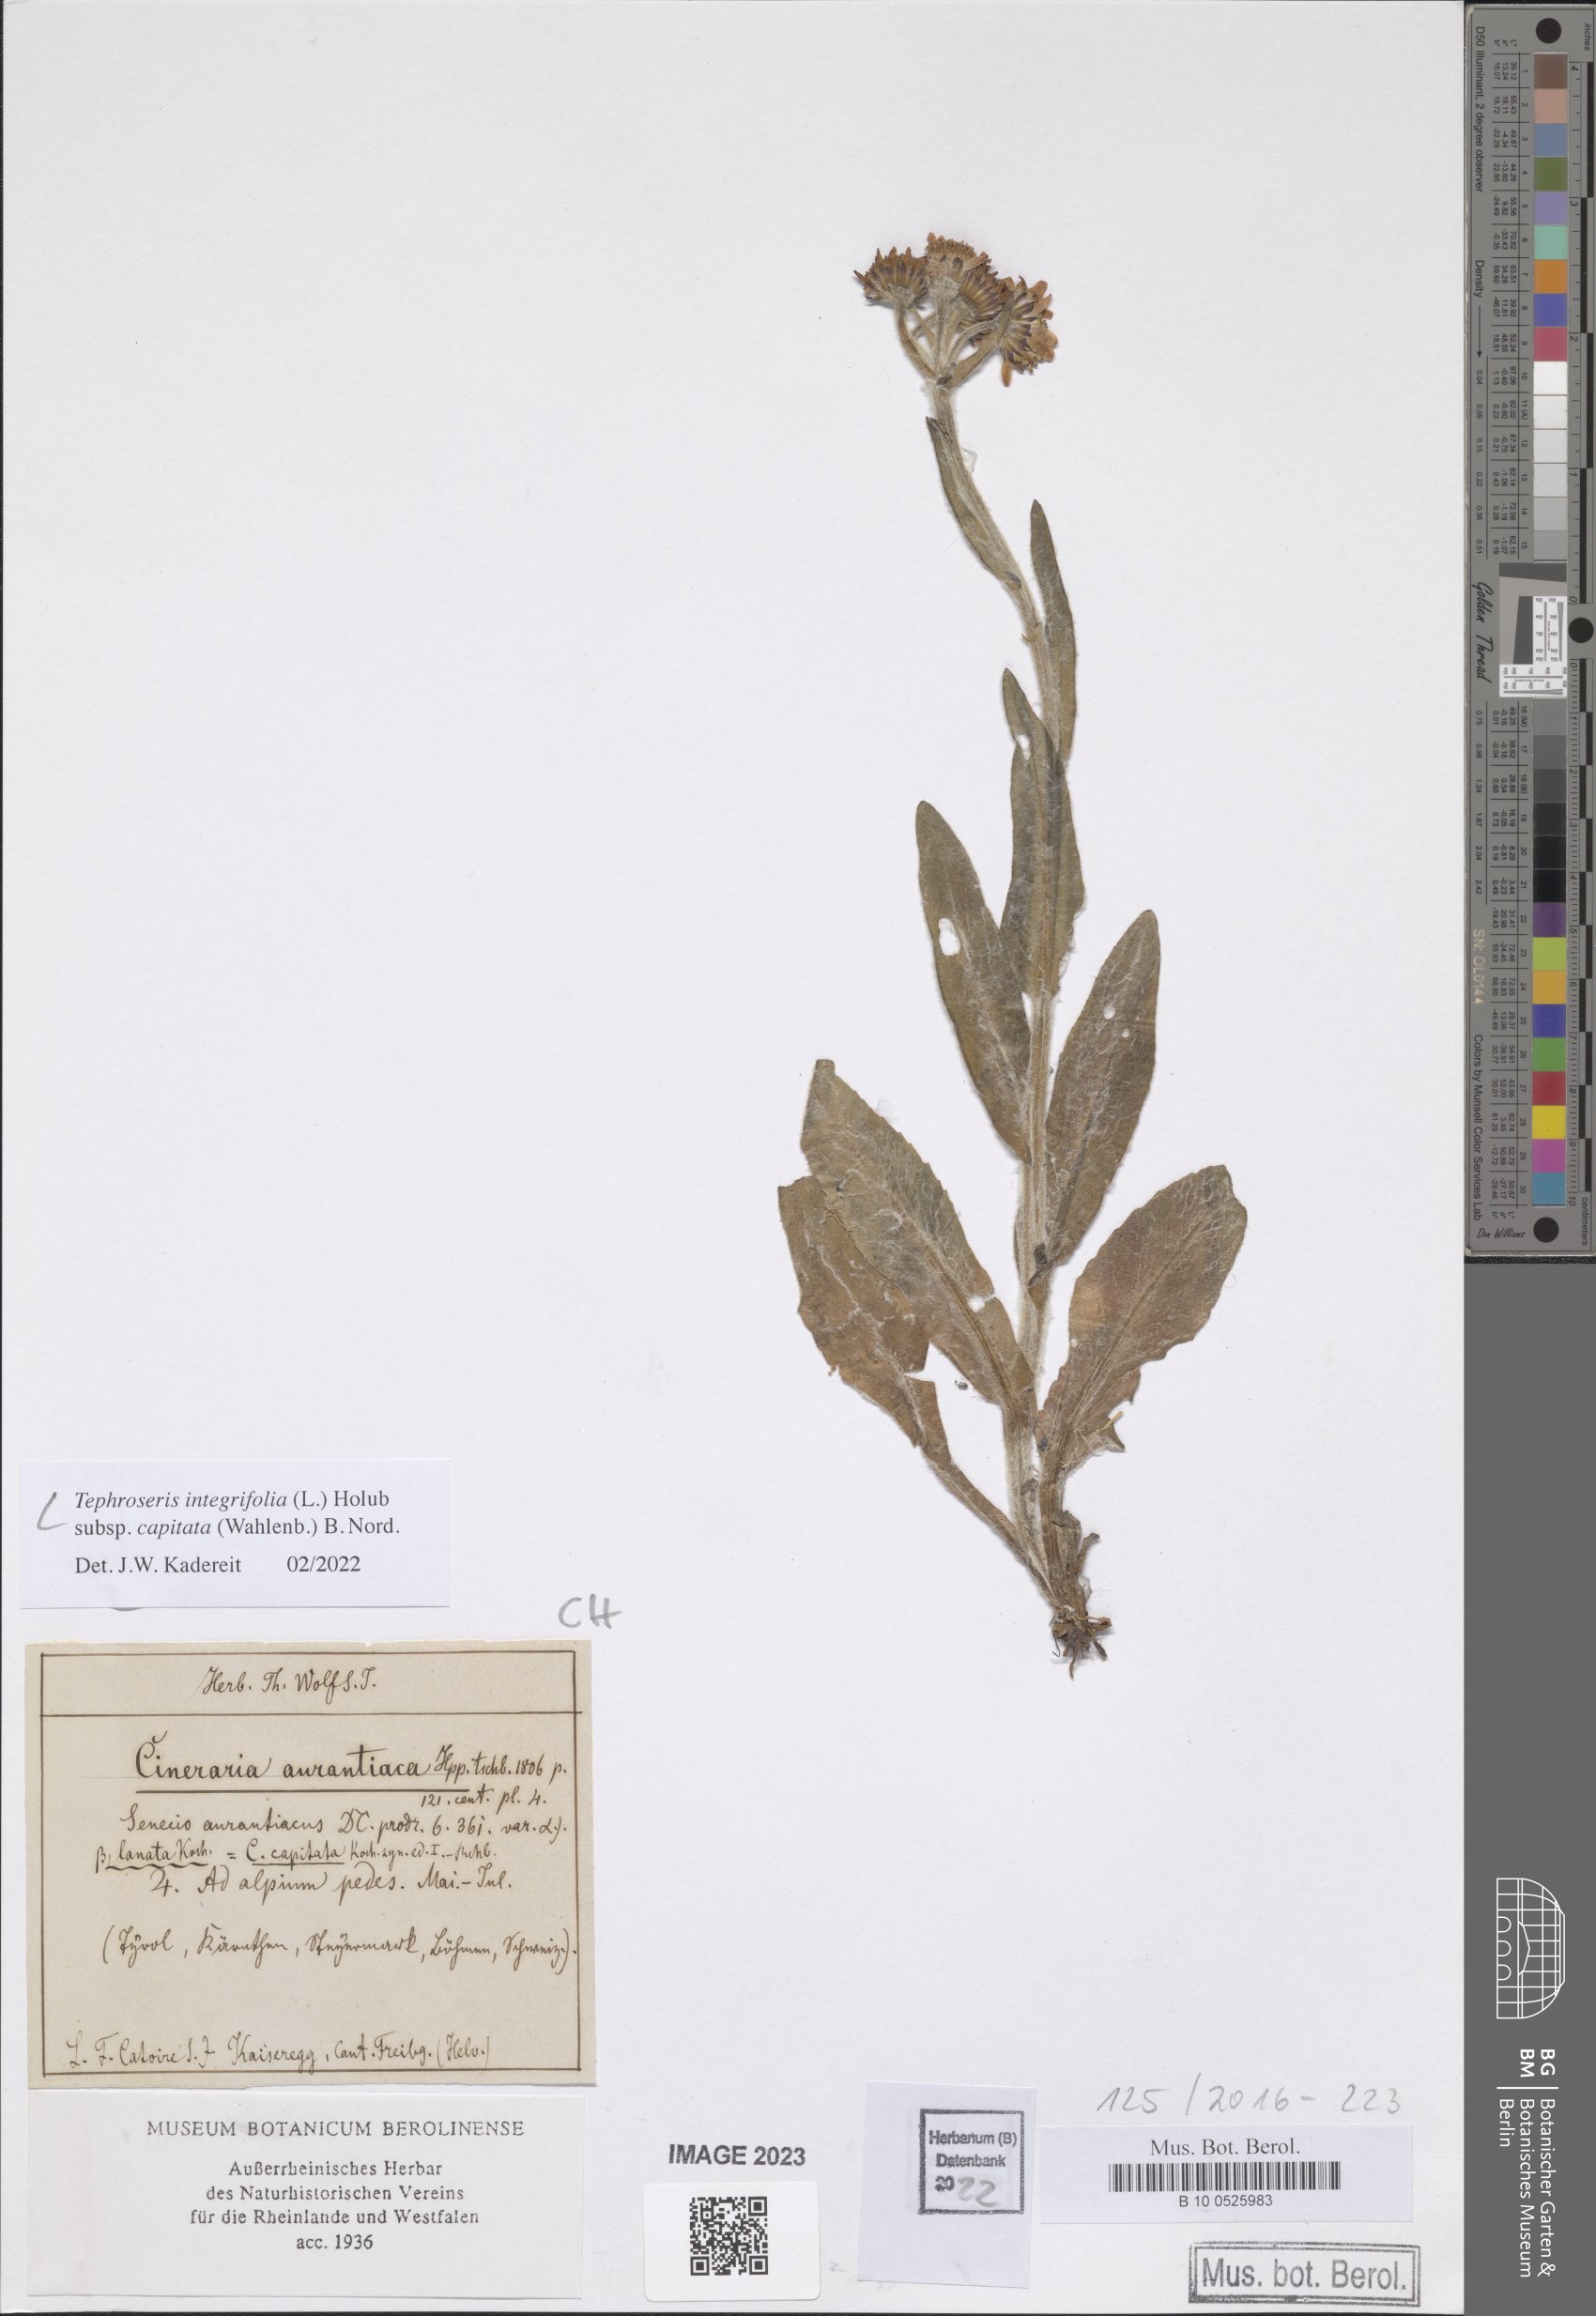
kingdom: Plantae
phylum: Tracheophyta
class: Magnoliopsida
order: Asterales
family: Asteraceae
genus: Tephroseris
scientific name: Tephroseris integrifolia
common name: Field fleawort
